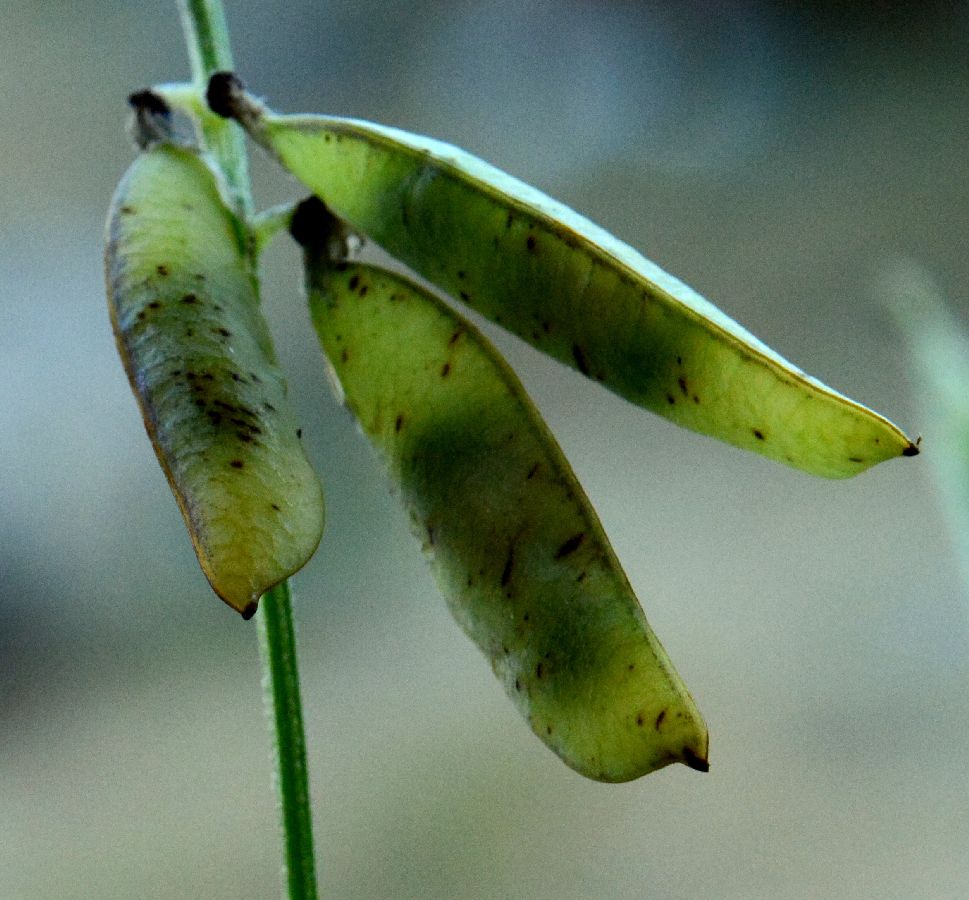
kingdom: Plantae
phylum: Tracheophyta
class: Magnoliopsida
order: Fabales
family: Fabaceae
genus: Vicia
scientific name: Vicia cracca
